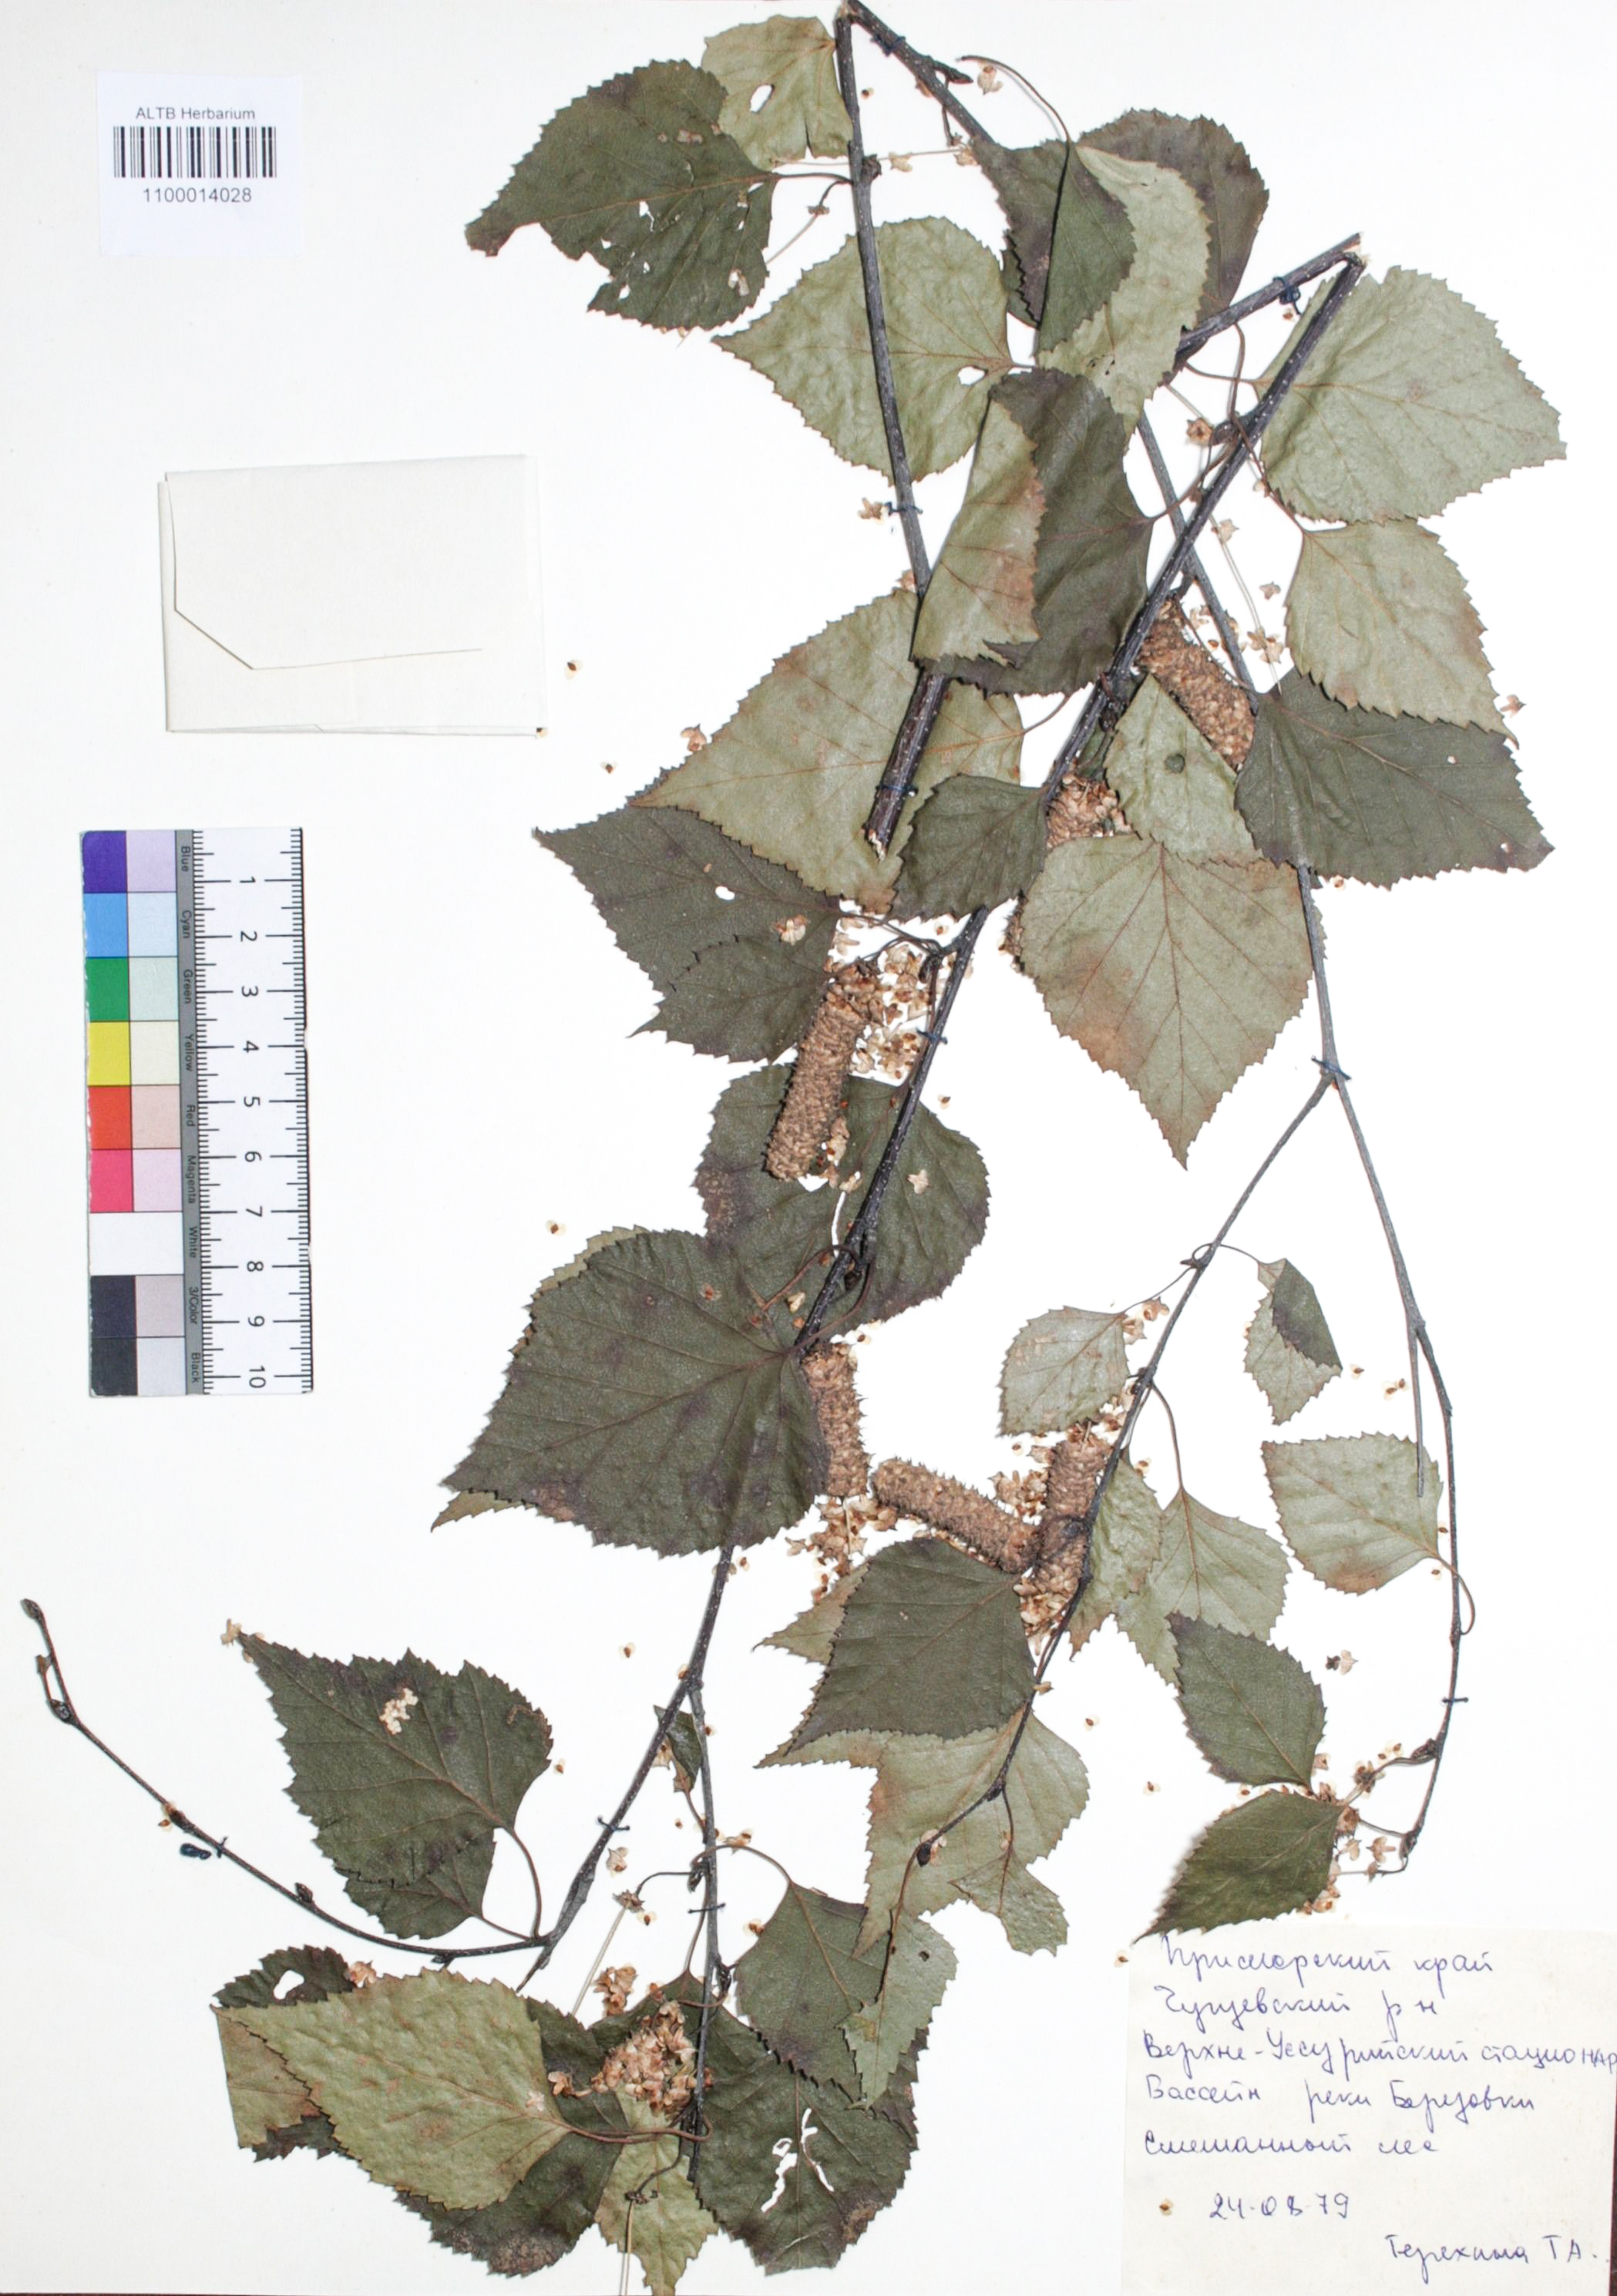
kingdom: Plantae
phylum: Tracheophyta
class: Magnoliopsida
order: Fagales
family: Betulaceae
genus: Betula
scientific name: Betula pendula
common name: Silver birch
